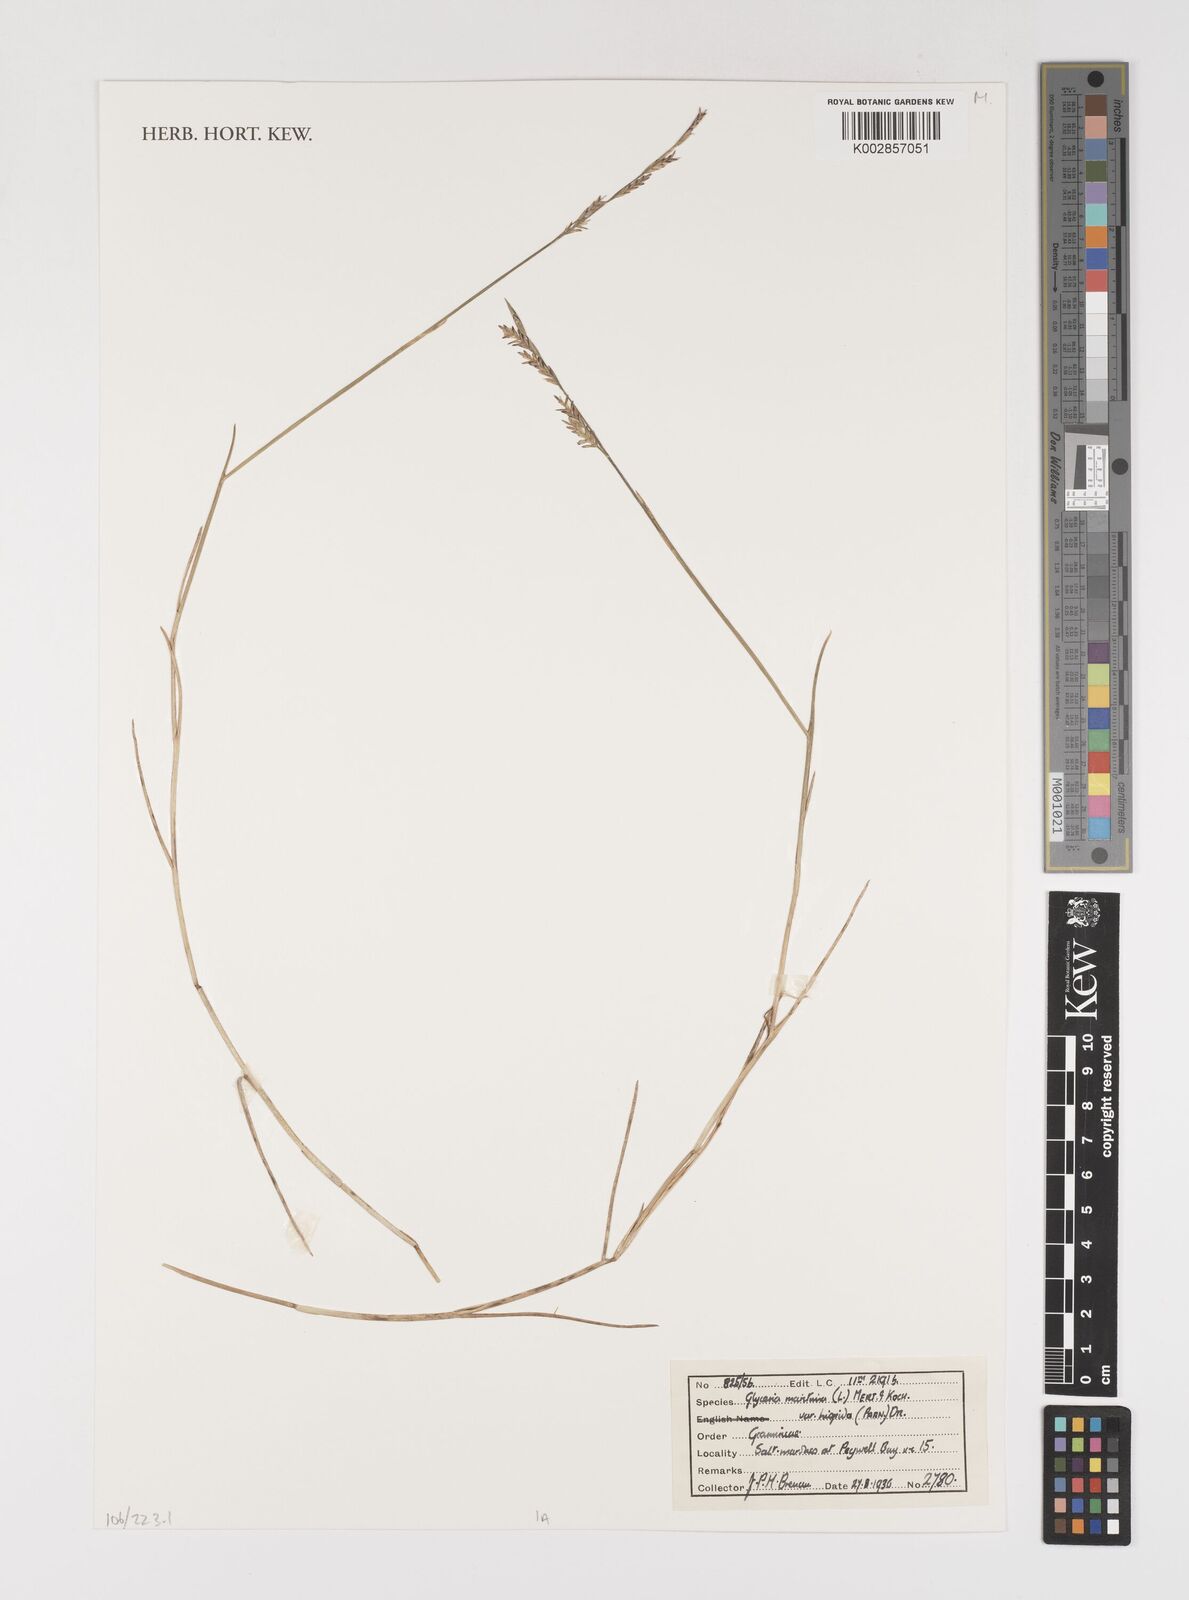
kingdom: Plantae
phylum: Tracheophyta
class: Liliopsida
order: Poales
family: Poaceae
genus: Puccinellia
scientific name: Puccinellia maritima
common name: Common saltmarsh grass
